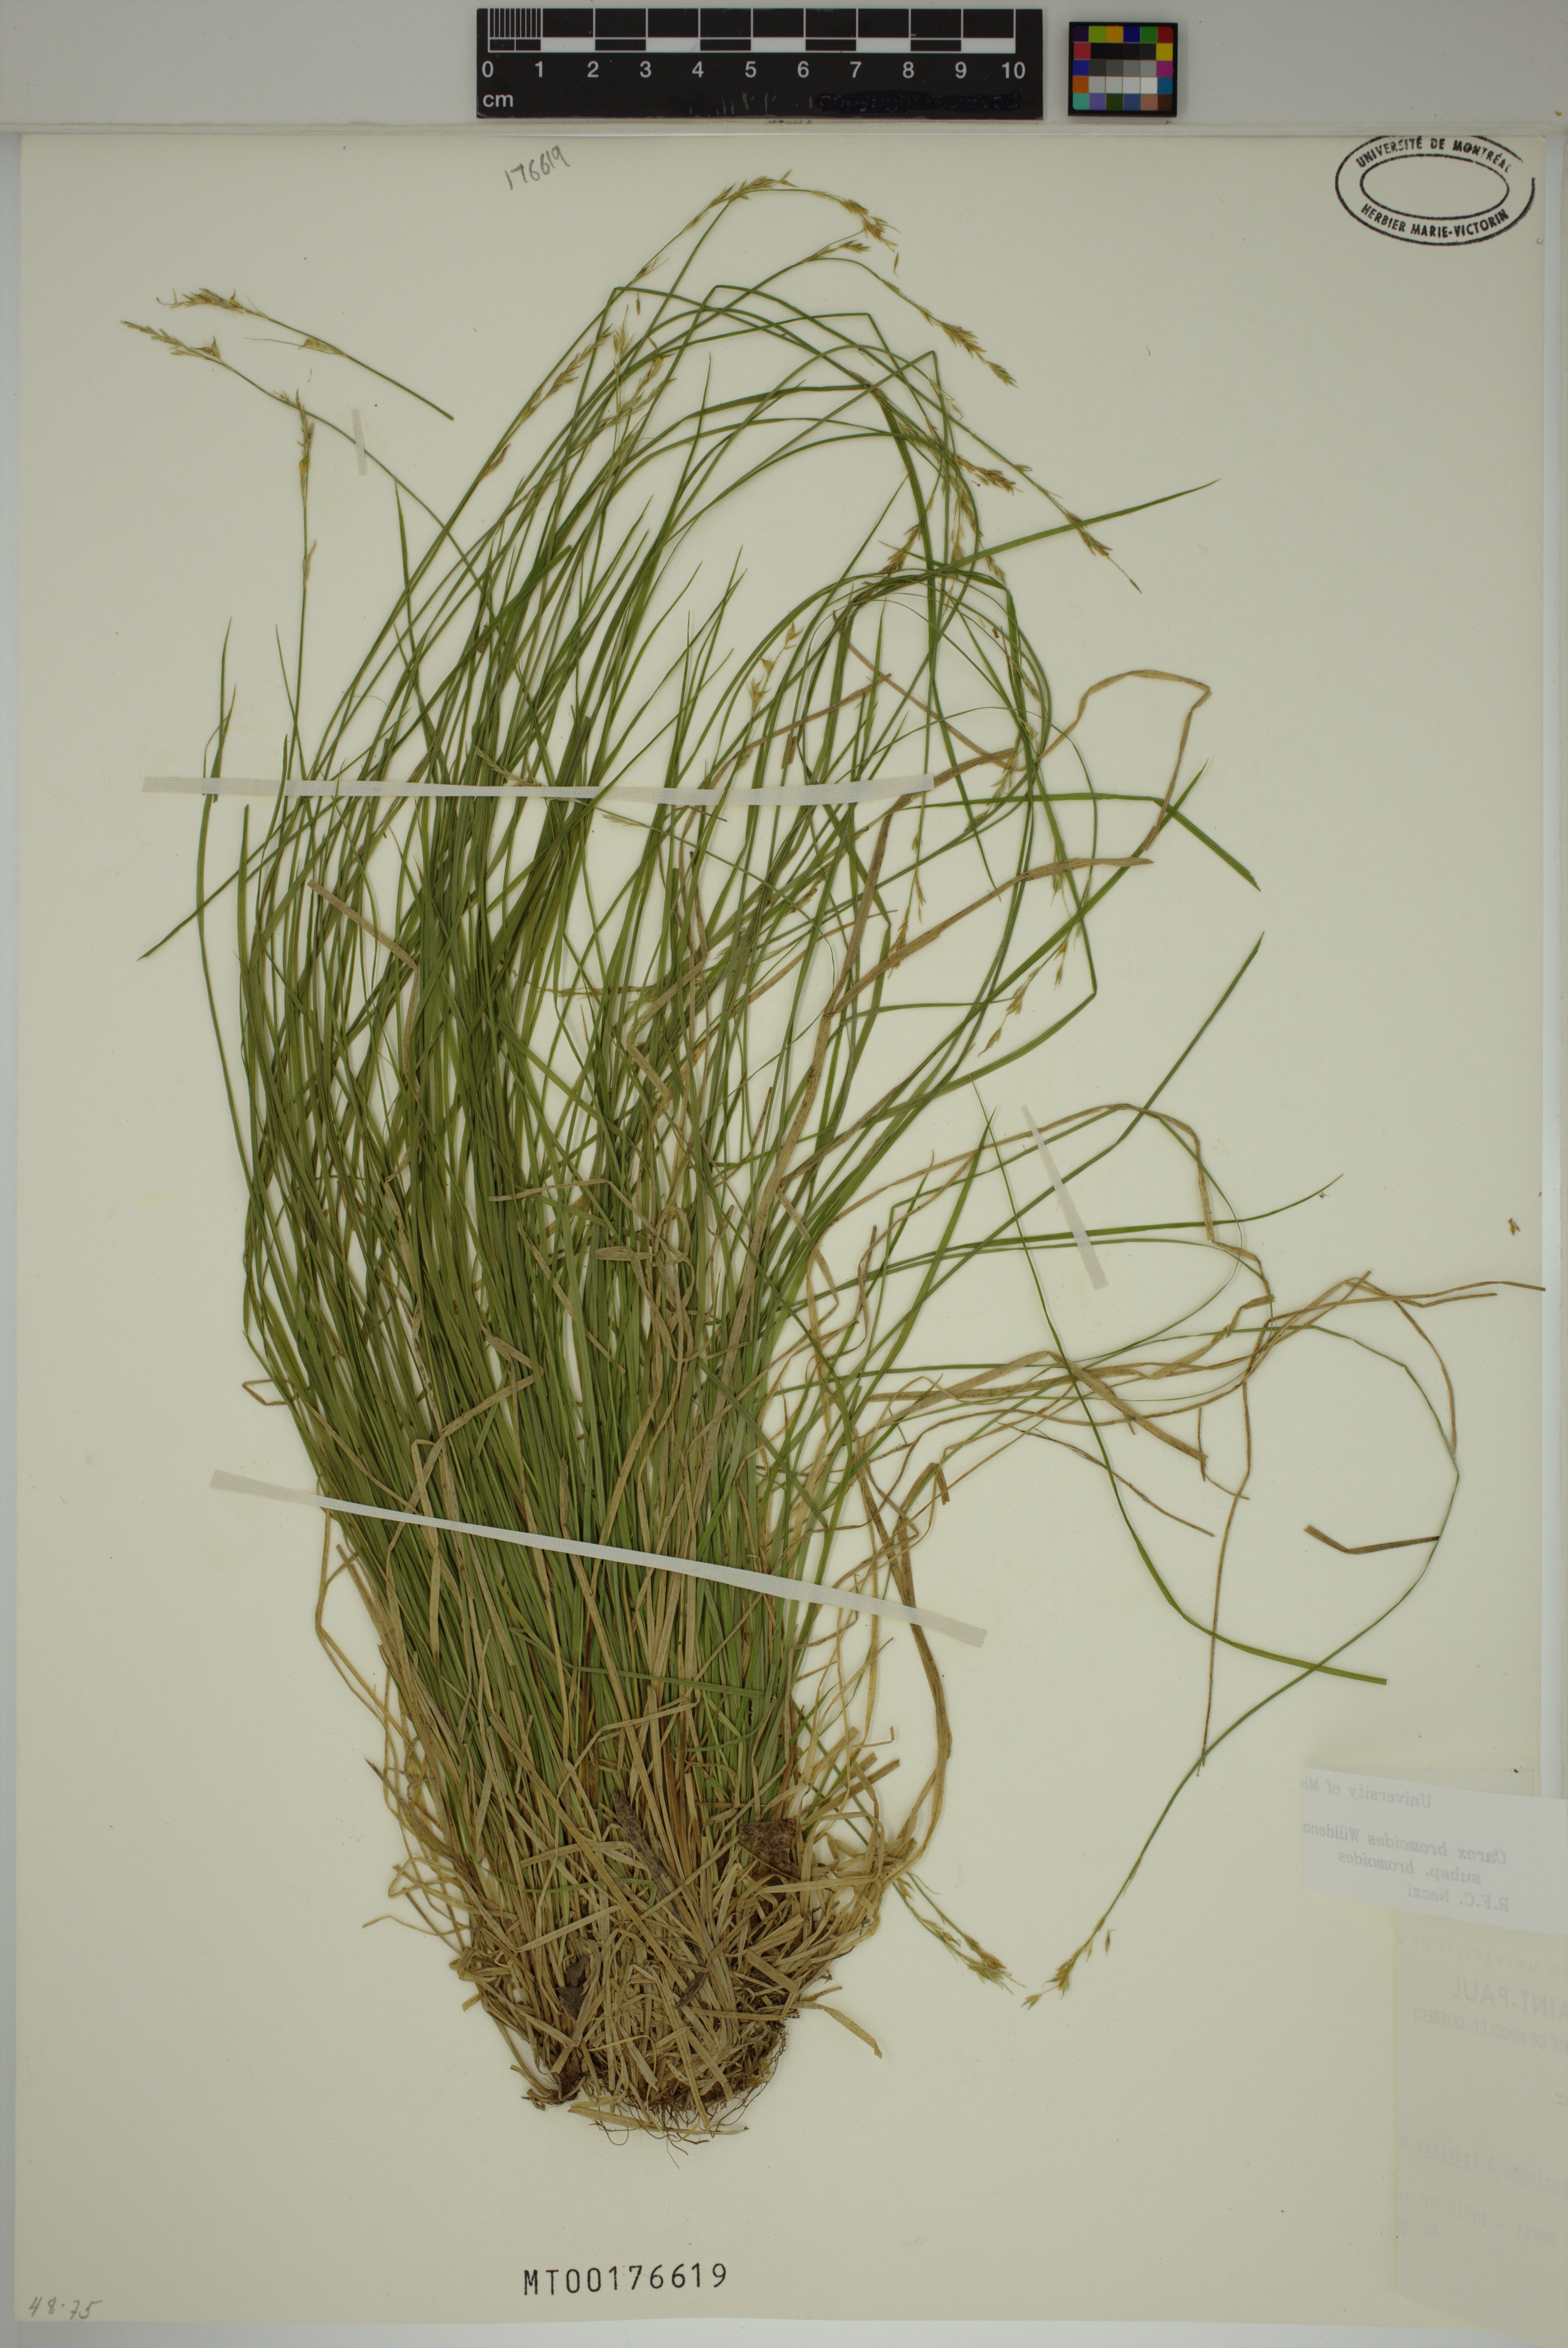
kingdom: Plantae
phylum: Tracheophyta
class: Liliopsida
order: Poales
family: Cyperaceae
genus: Carex
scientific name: Carex bromoides
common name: Brome hummock sedge
